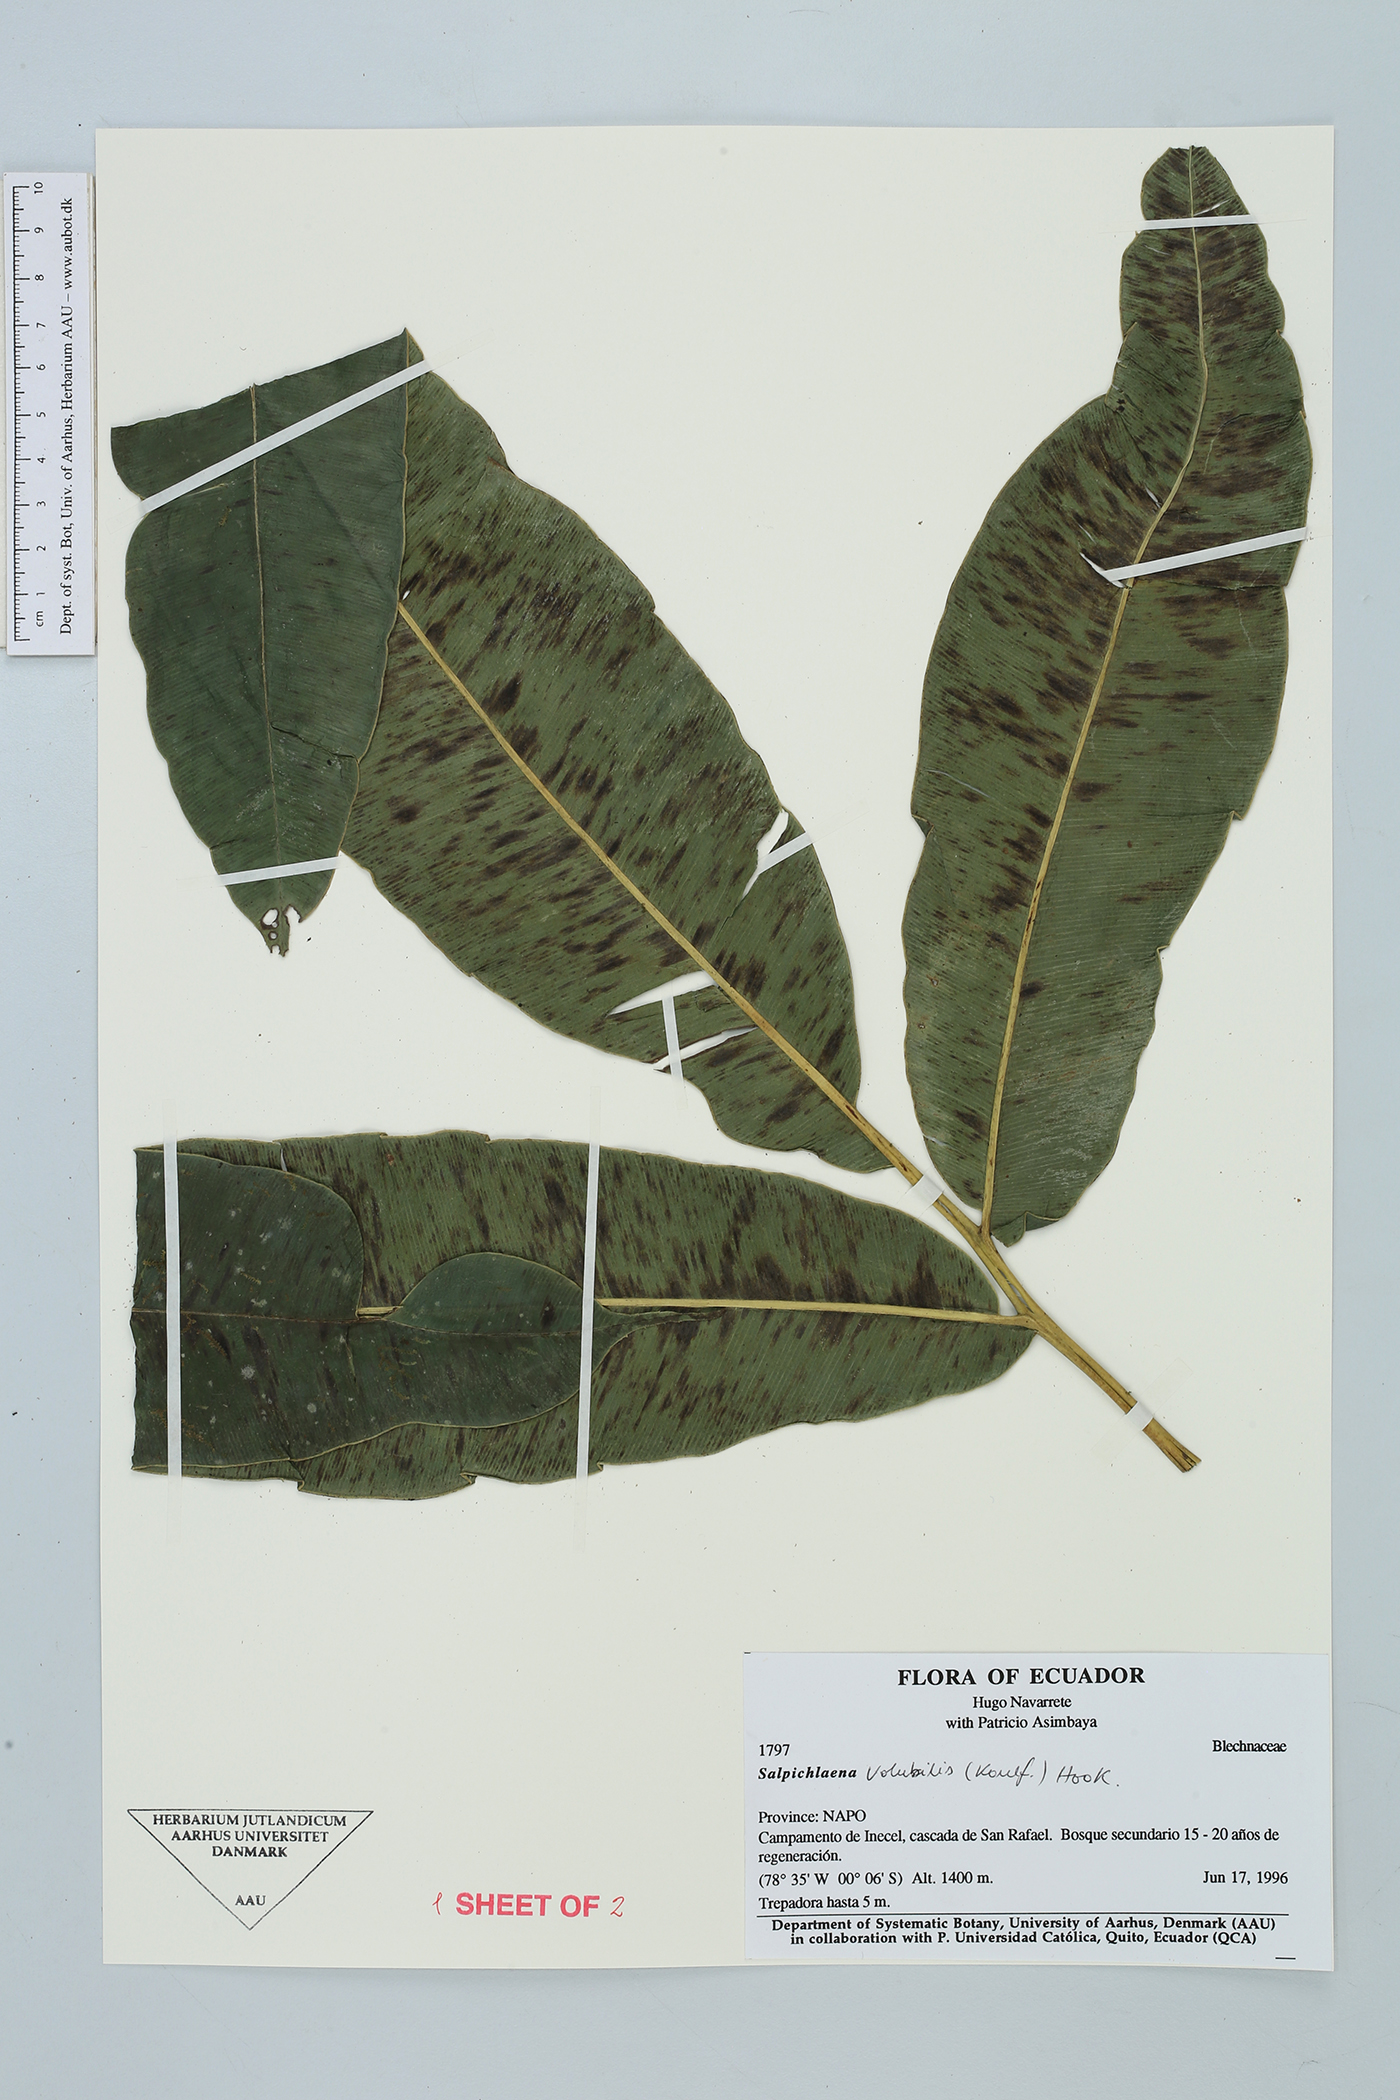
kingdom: Plantae
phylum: Tracheophyta
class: Polypodiopsida
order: Polypodiales
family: Blechnaceae
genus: Salpichlaena
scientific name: Salpichlaena volubilis
